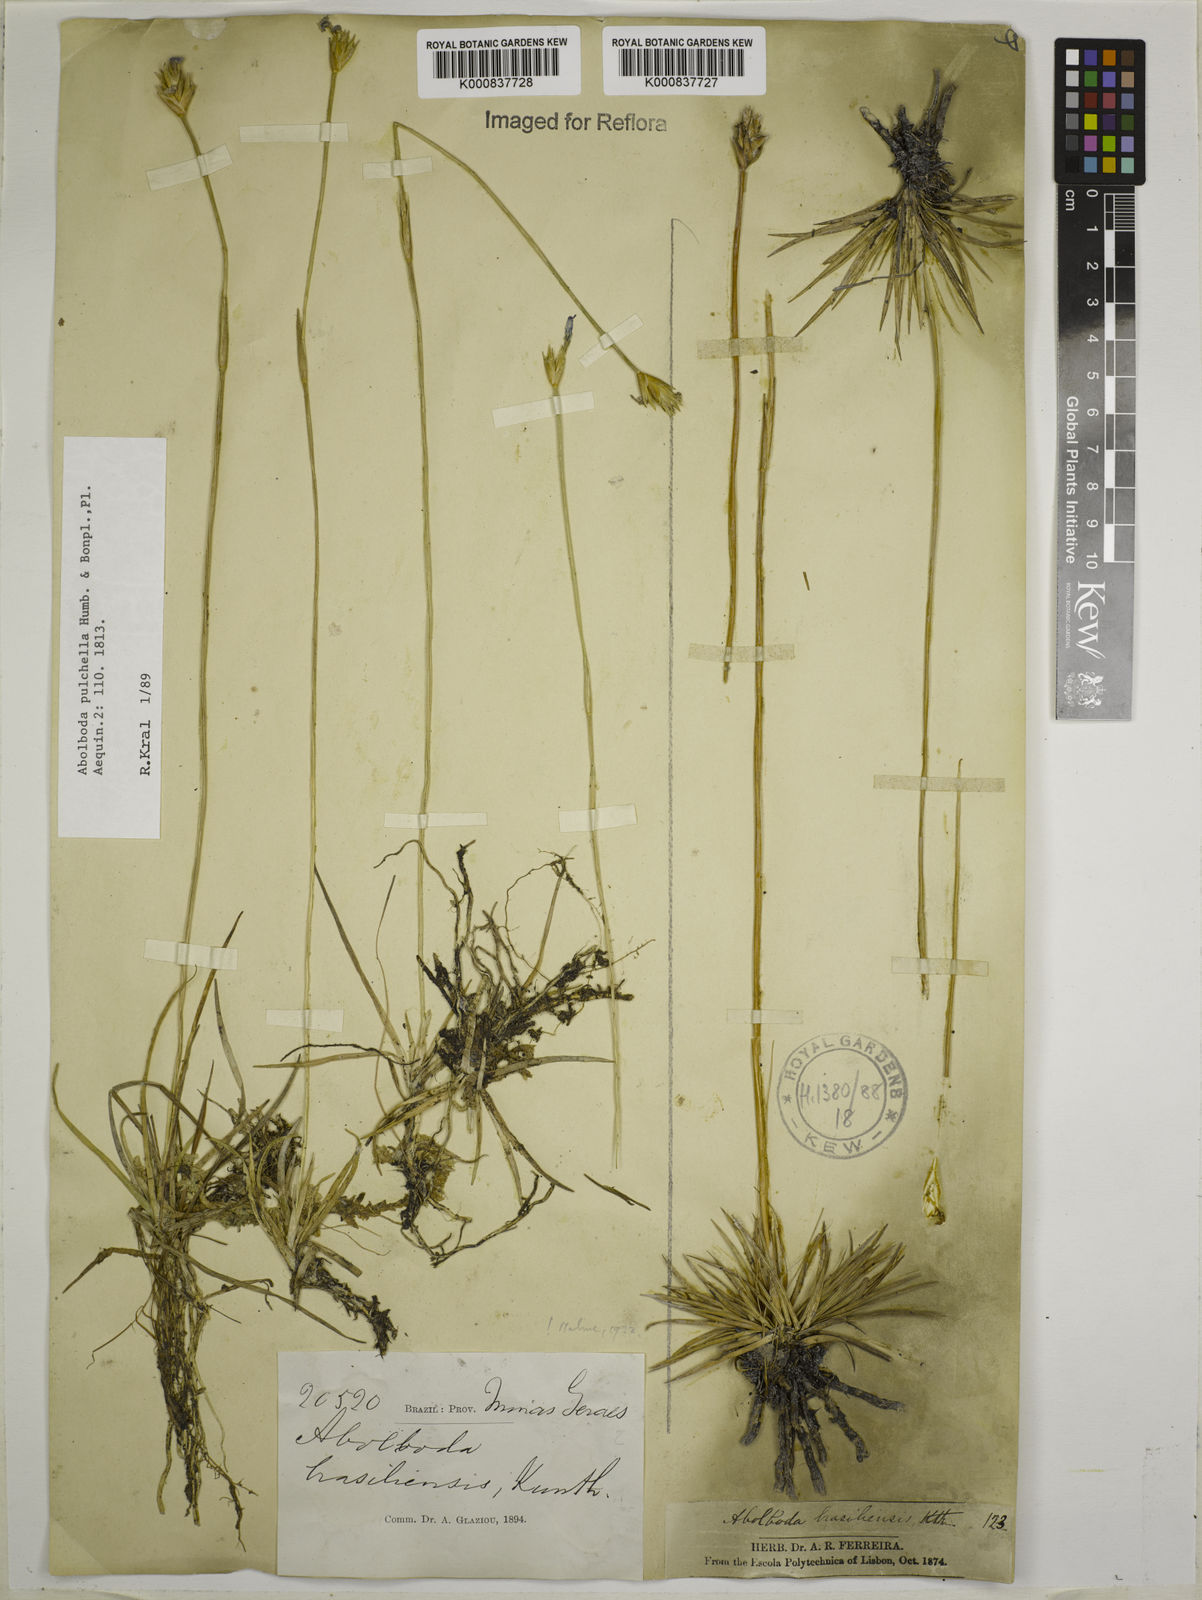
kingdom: Plantae
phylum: Tracheophyta
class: Liliopsida
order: Poales
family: Xyridaceae
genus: Abolboda
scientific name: Abolboda pulchella
